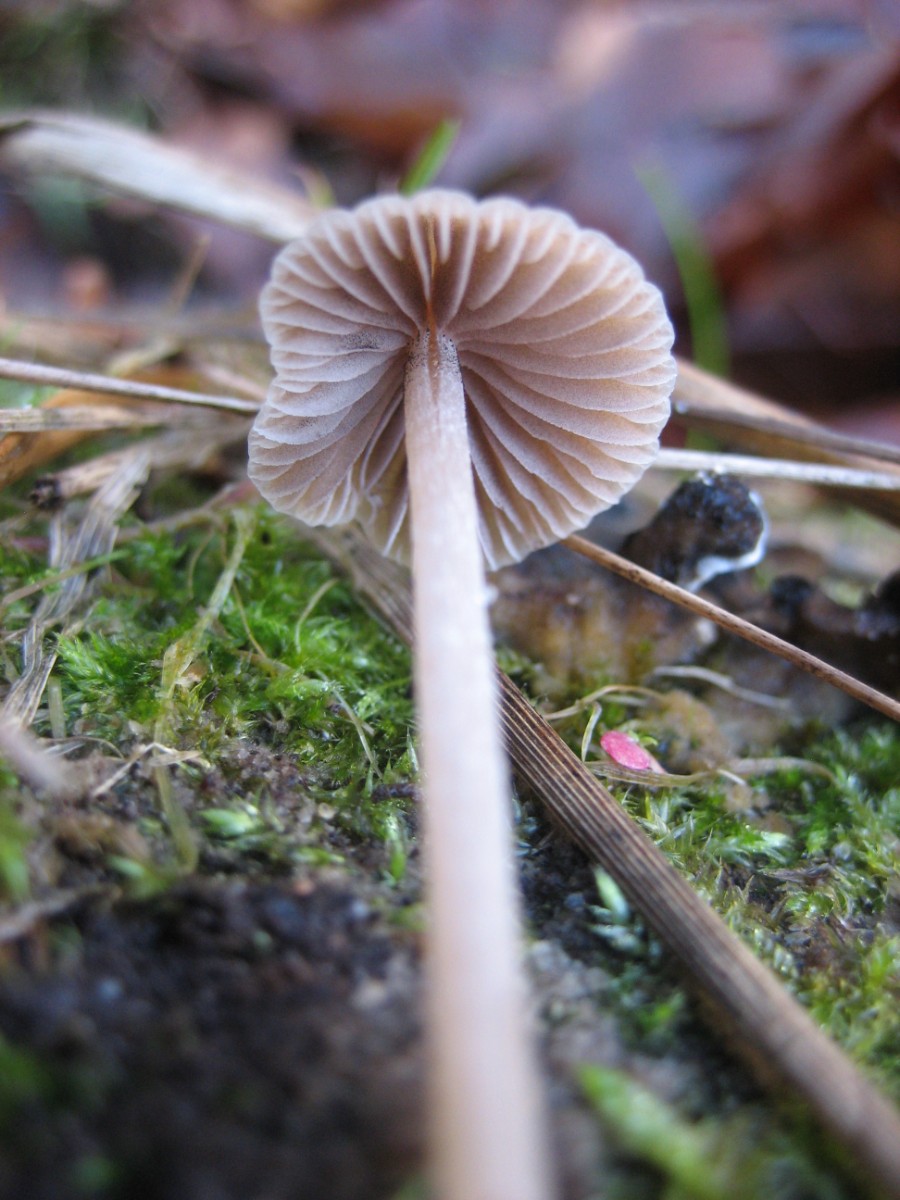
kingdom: Fungi
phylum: Basidiomycota
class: Agaricomycetes
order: Agaricales
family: Psathyrellaceae
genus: Psathyrella
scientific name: Psathyrella
